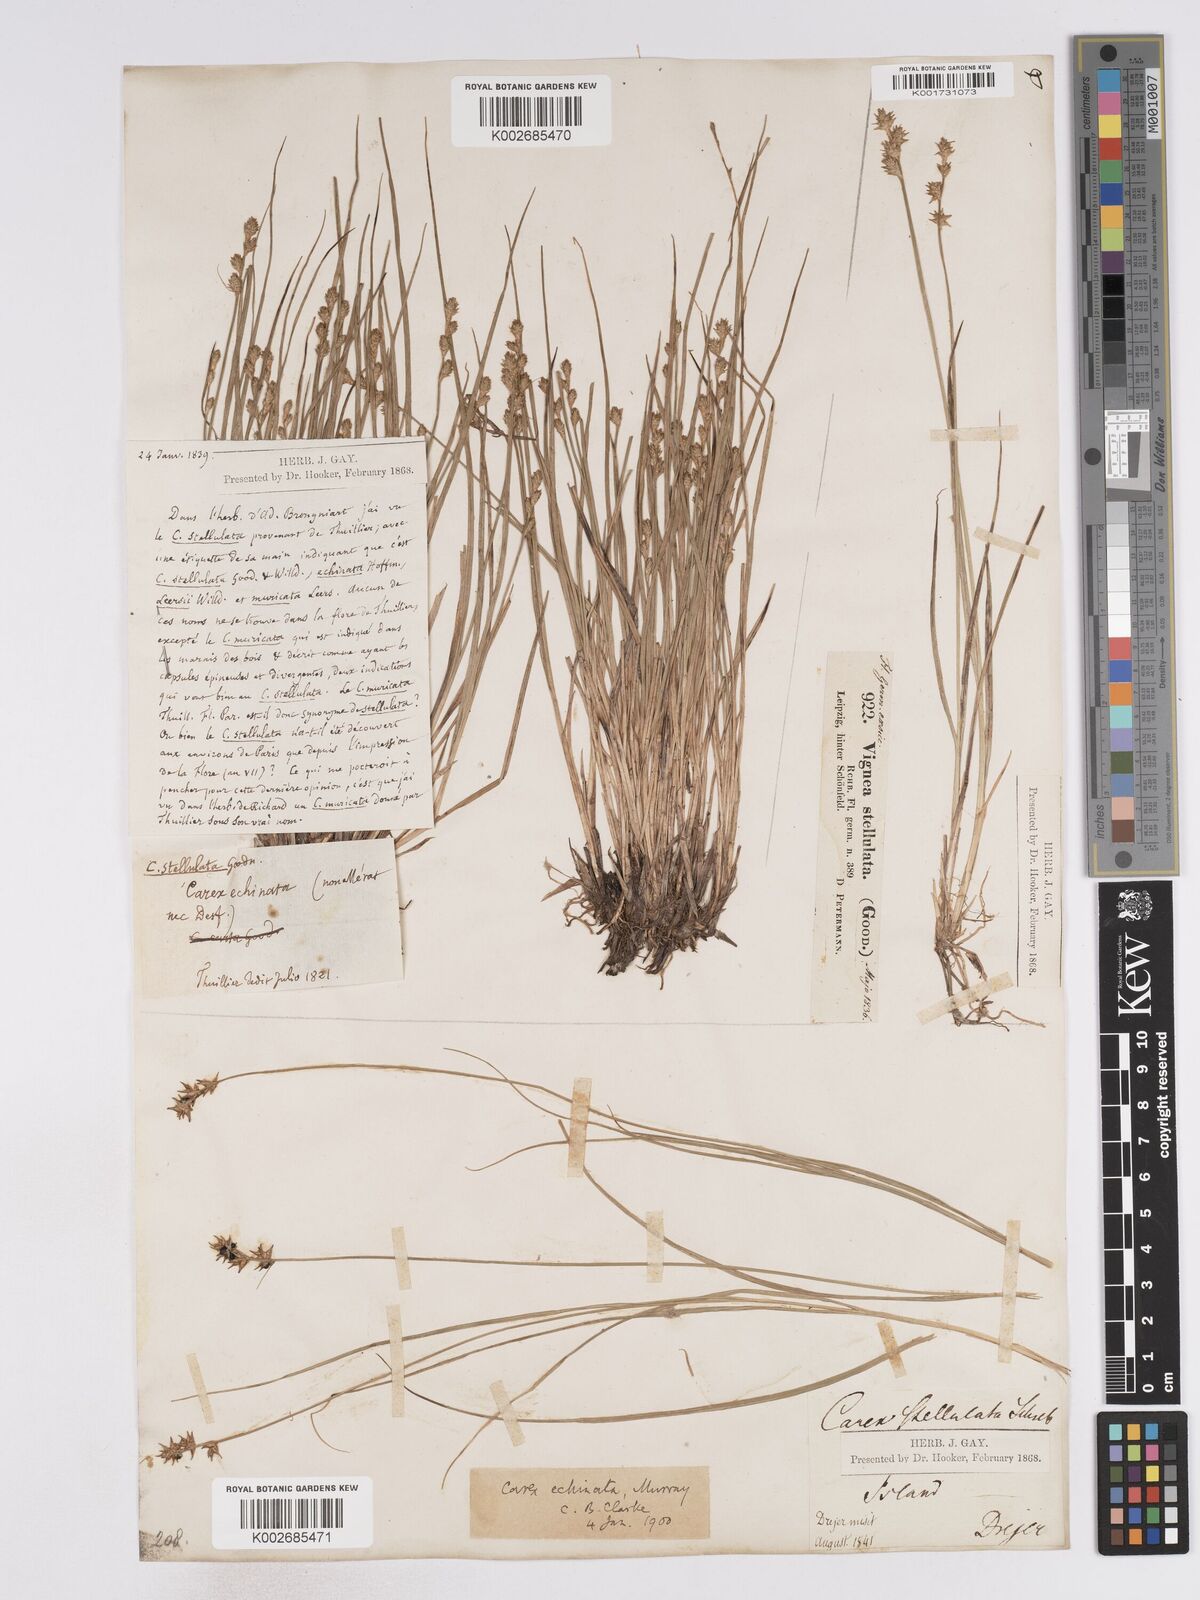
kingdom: Plantae
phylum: Tracheophyta
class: Liliopsida
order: Poales
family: Cyperaceae
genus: Carex
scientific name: Carex echinata
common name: Star sedge
